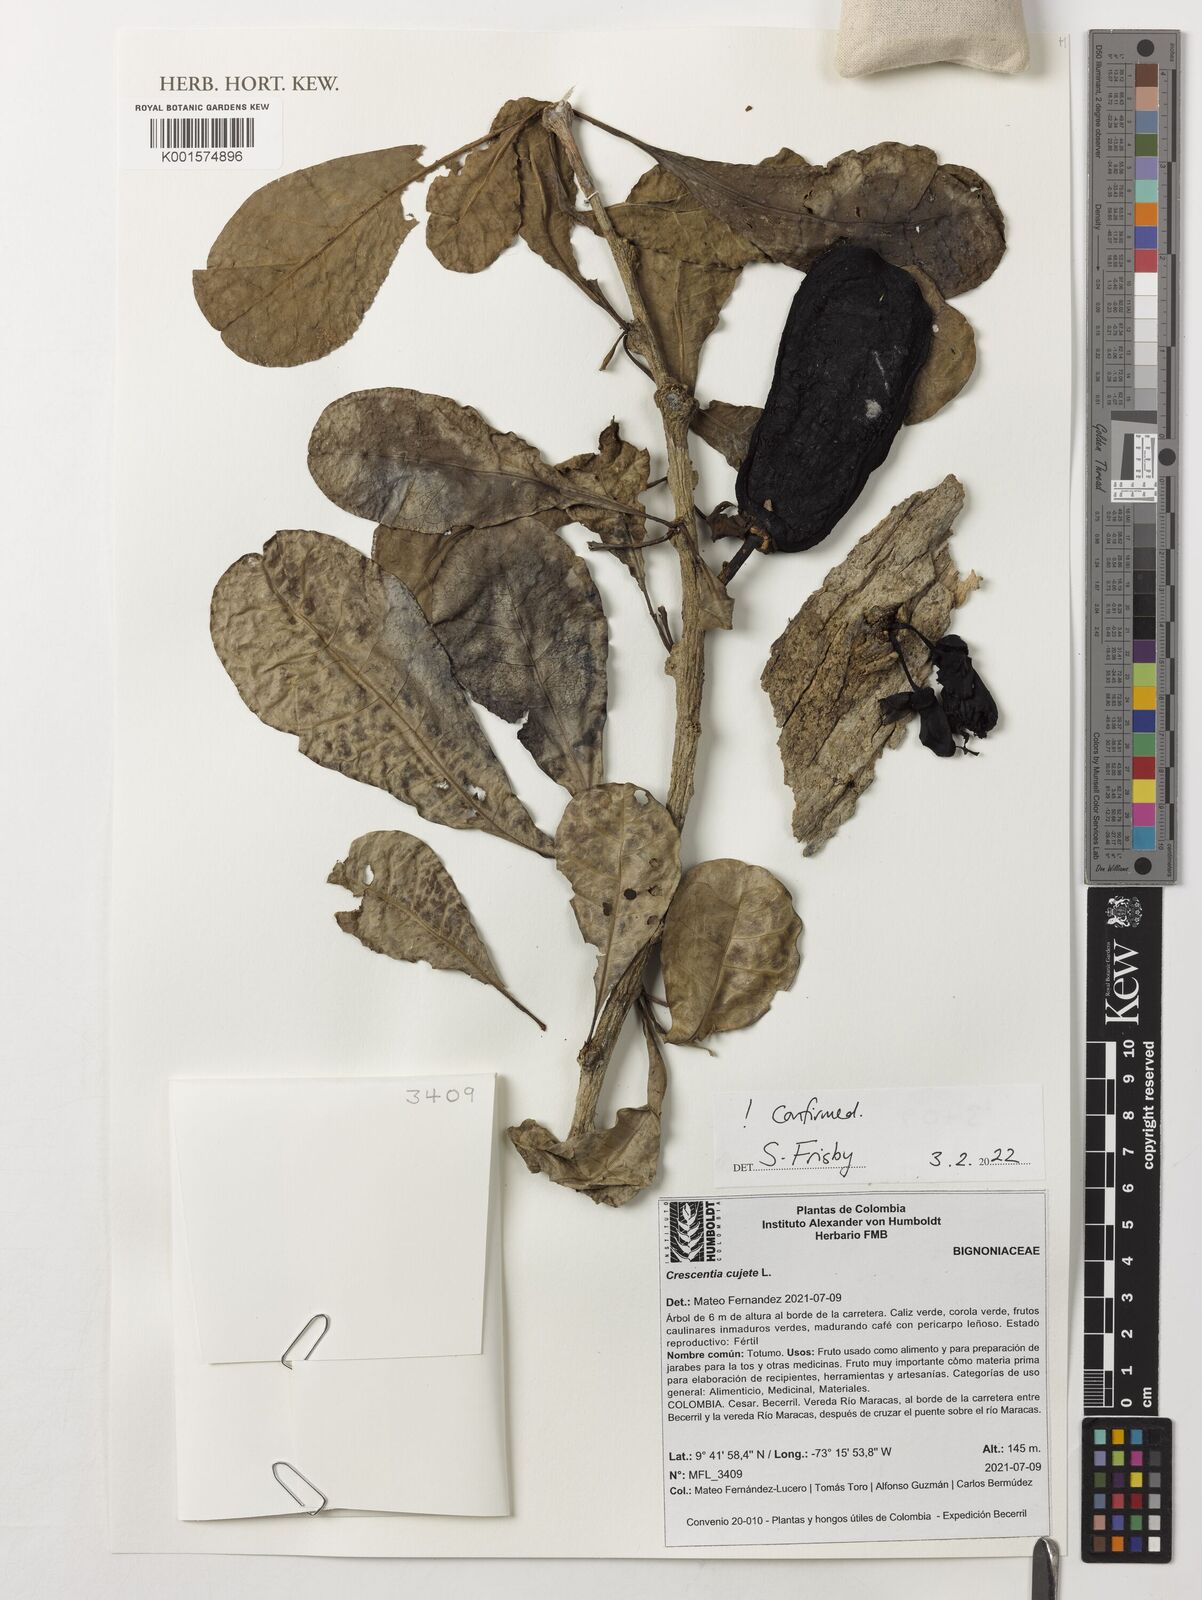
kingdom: Plantae
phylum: Tracheophyta
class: Magnoliopsida
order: Lamiales
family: Bignoniaceae
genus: Crescentia
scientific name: Crescentia cujete
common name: Calabash
